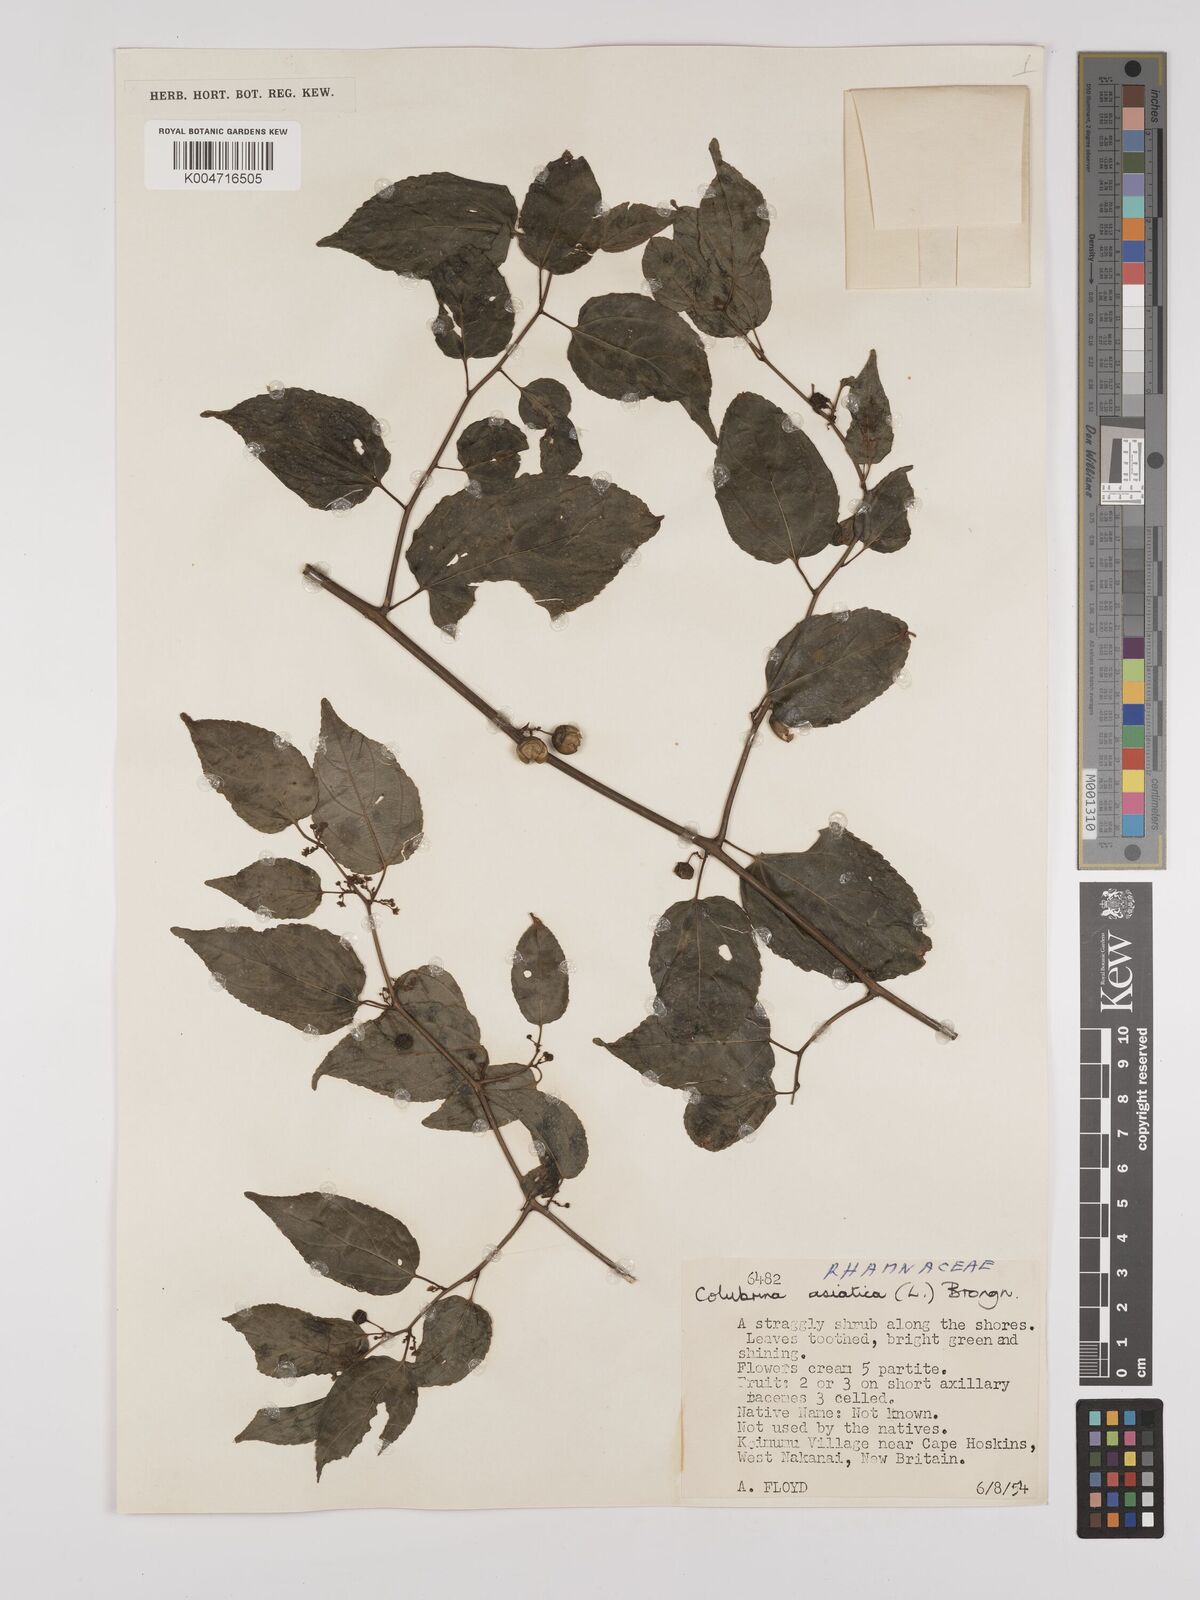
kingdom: Plantae
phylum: Tracheophyta
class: Magnoliopsida
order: Rosales
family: Rhamnaceae
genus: Colubrina
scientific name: Colubrina asiatica
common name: Asian nakedwood
